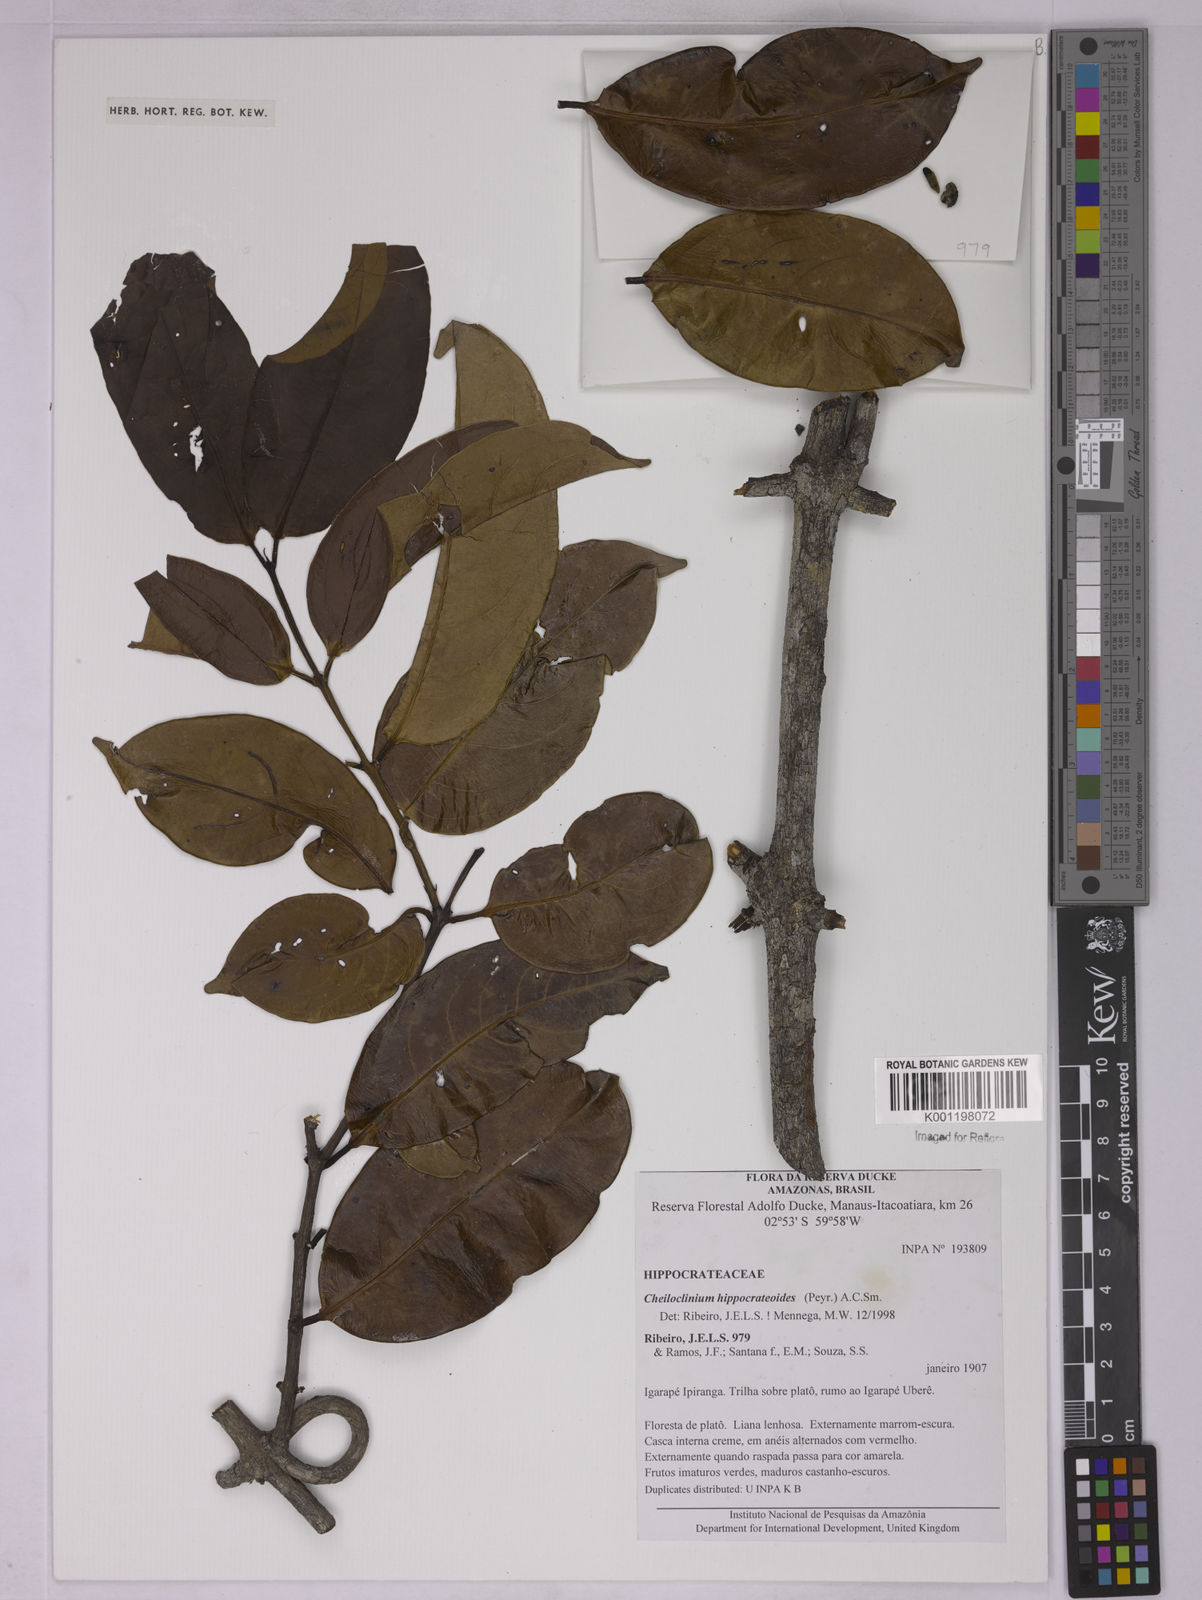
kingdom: Plantae
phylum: Tracheophyta
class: Magnoliopsida
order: Celastrales
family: Celastraceae
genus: Cheiloclinium
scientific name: Cheiloclinium hippocrateoides
